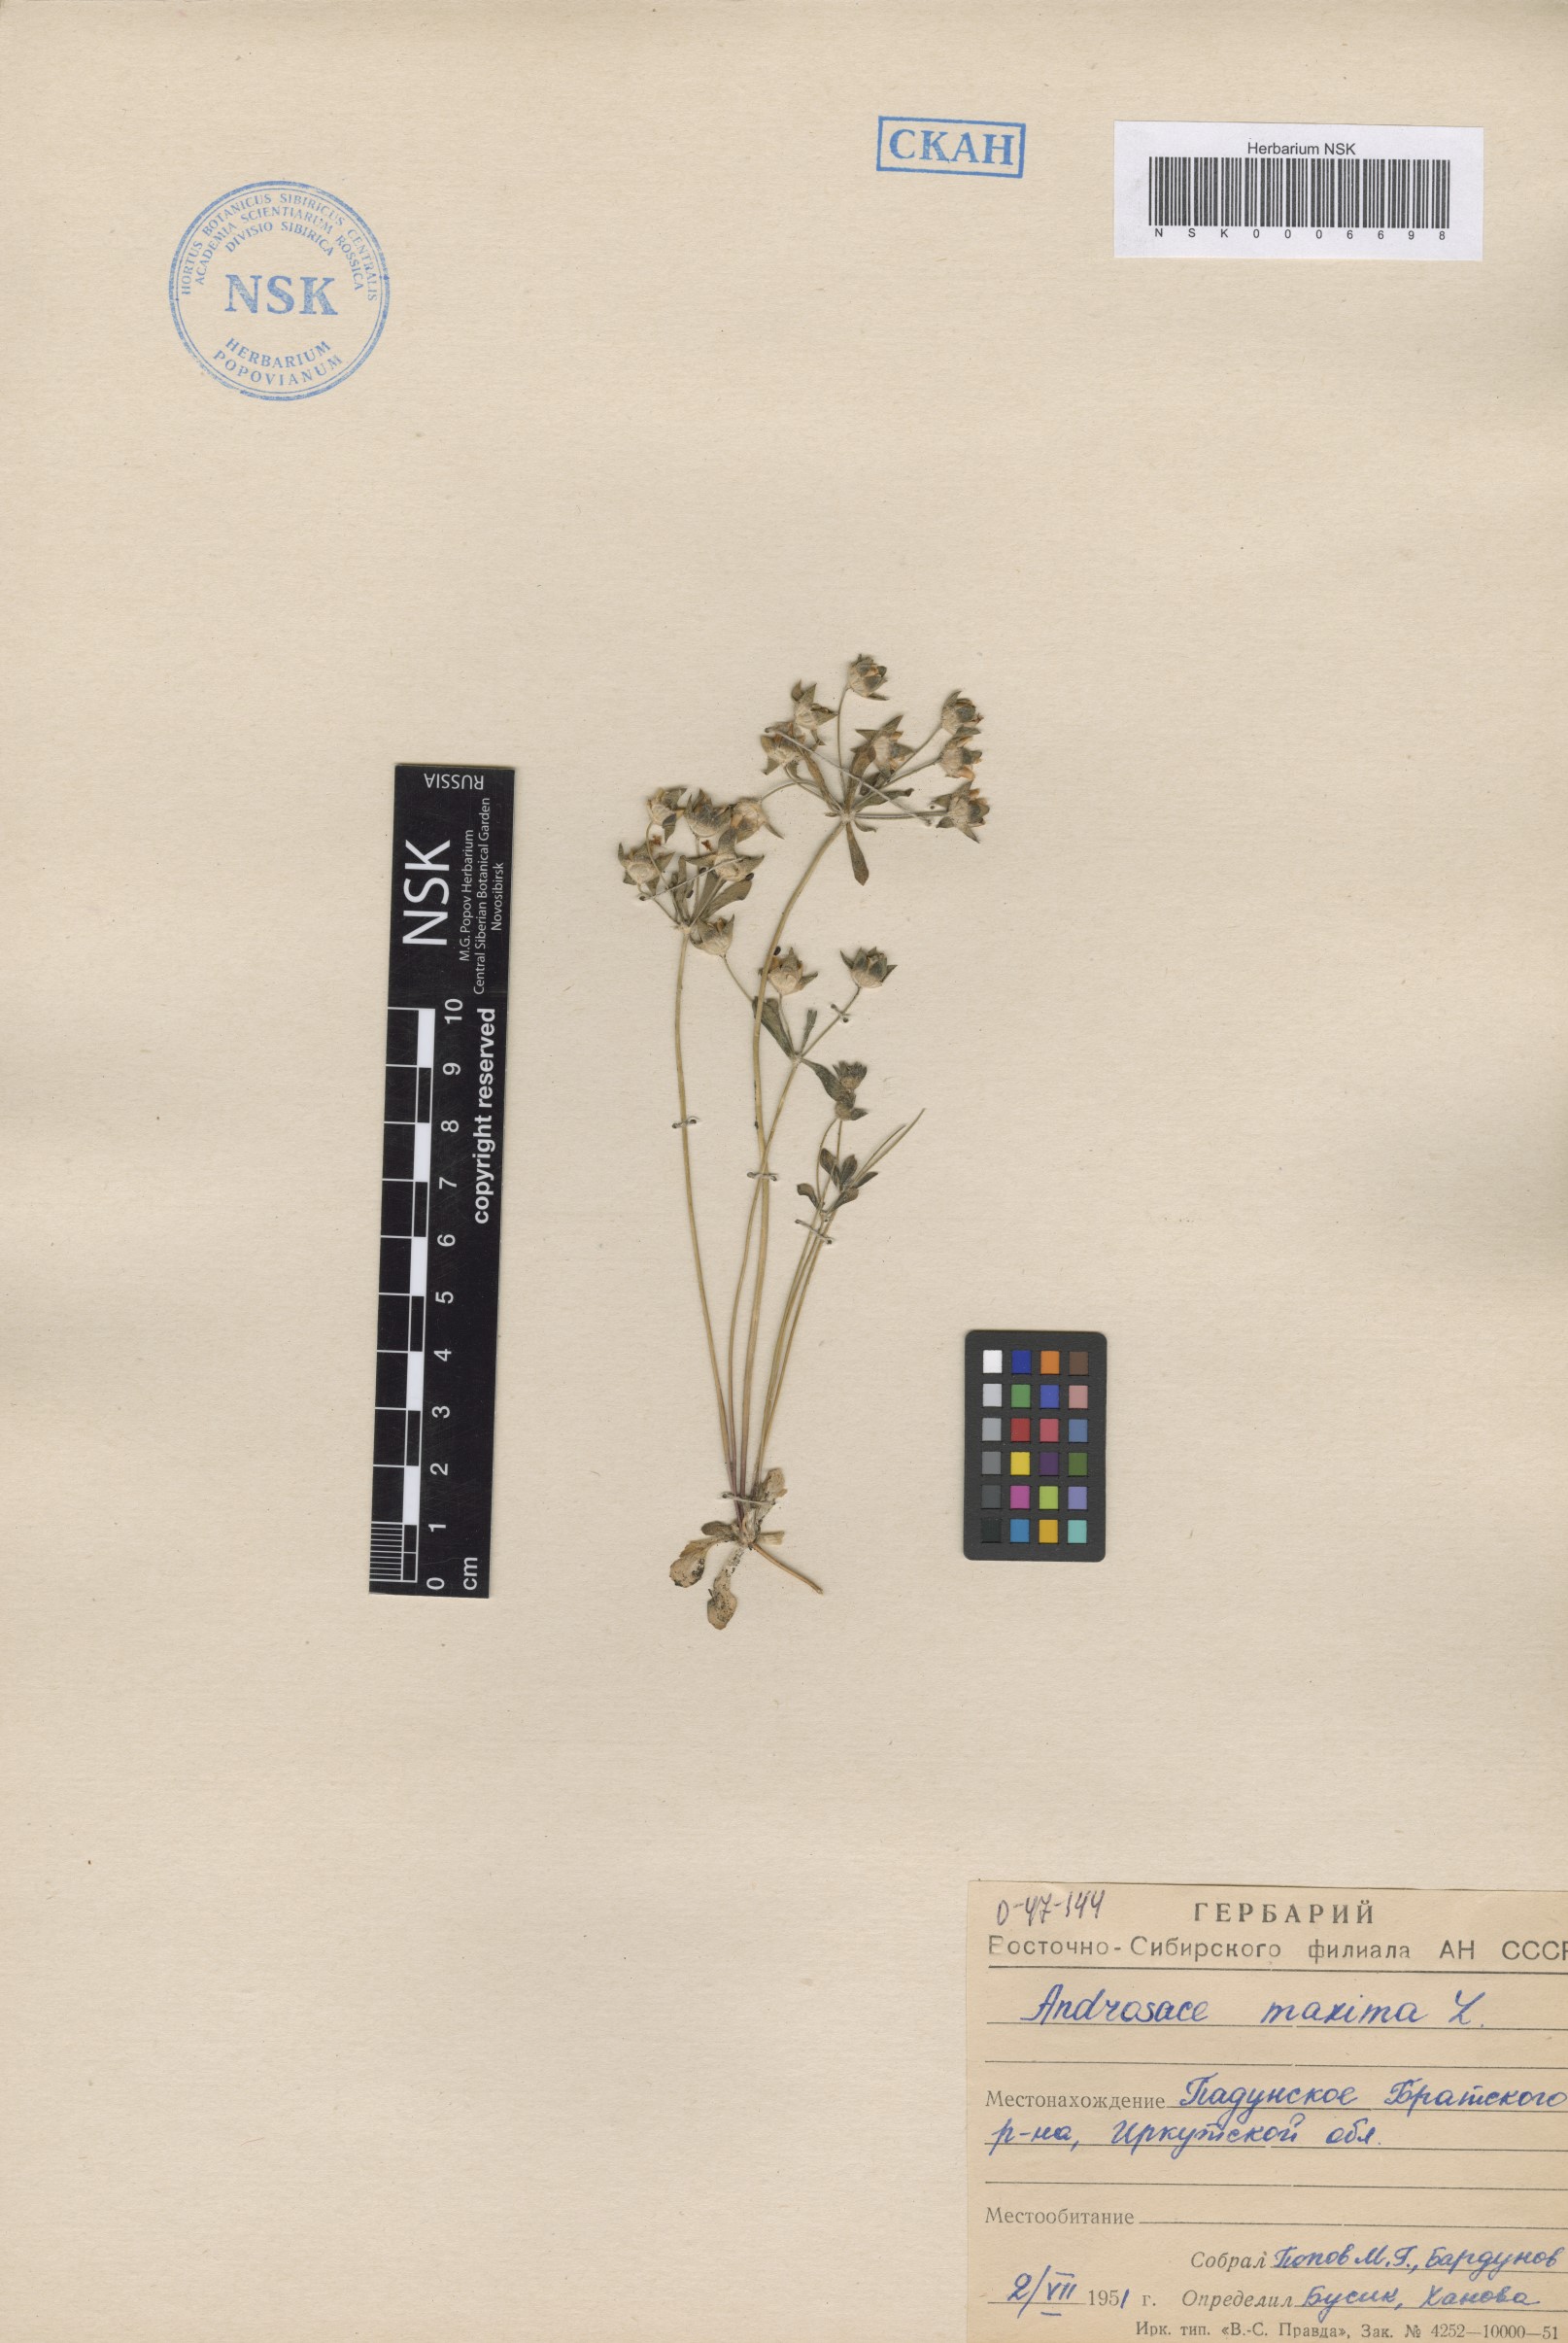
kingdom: Plantae
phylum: Tracheophyta
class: Magnoliopsida
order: Ericales
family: Primulaceae
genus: Androsace
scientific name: Androsace maxima
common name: Annual androsace
